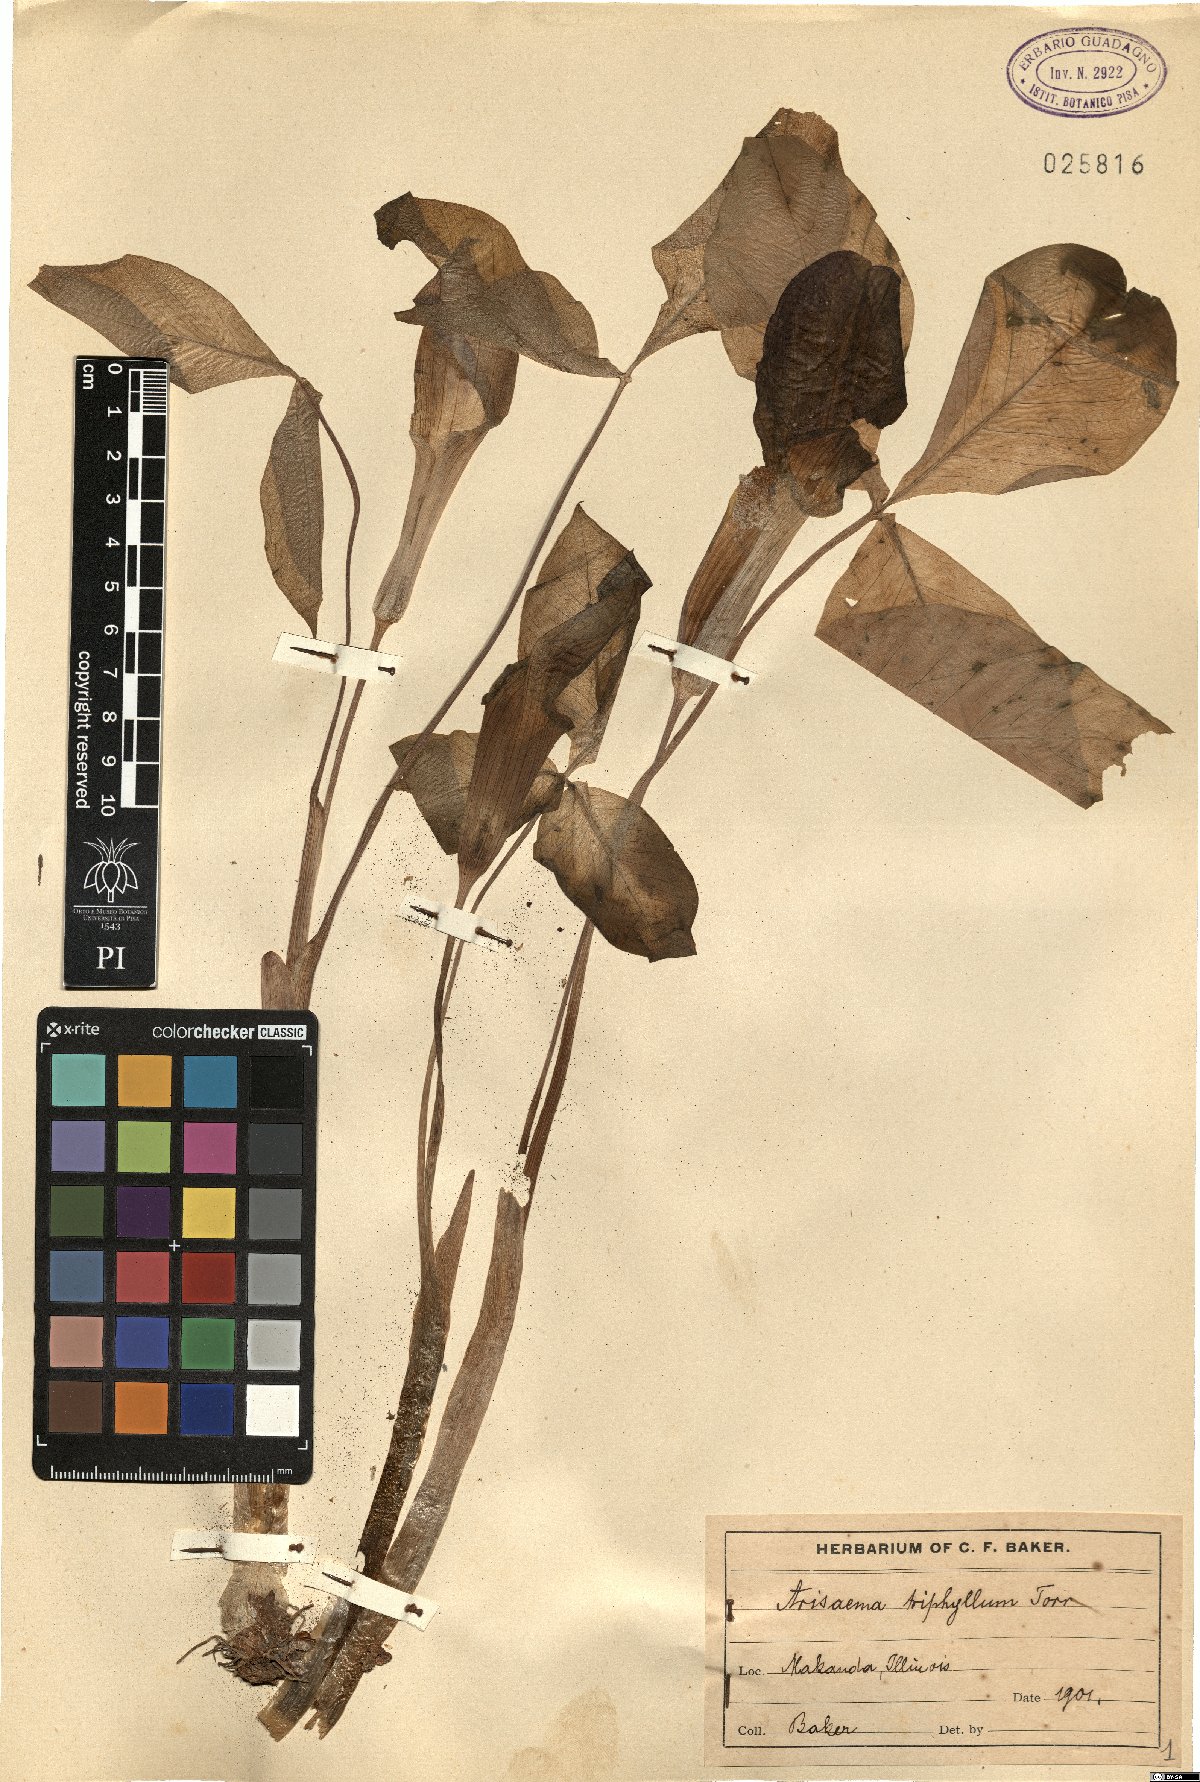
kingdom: Plantae
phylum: Tracheophyta
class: Liliopsida
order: Alismatales
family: Araceae
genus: Arisaema
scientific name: Arisaema triphyllum
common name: Jack-in-the-pulpit
